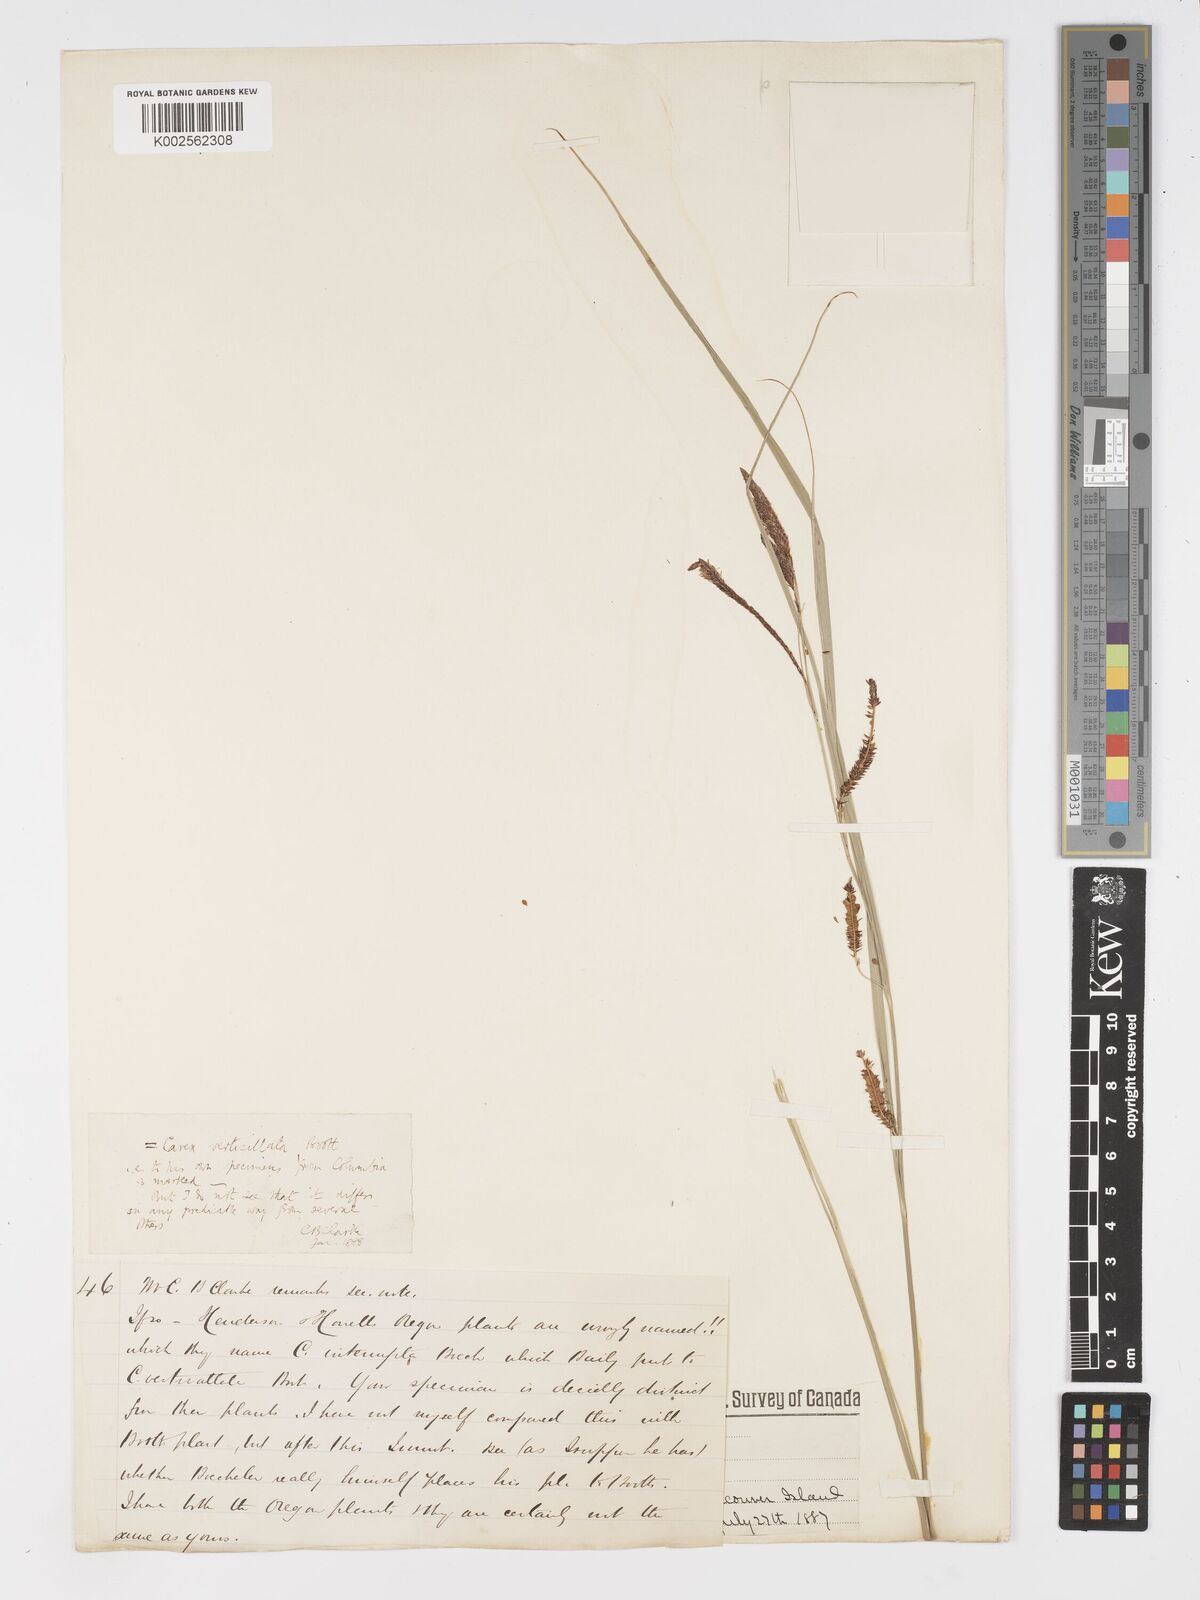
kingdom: Plantae
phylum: Tracheophyta
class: Liliopsida
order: Poales
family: Cyperaceae
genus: Carex
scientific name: Carex interrupta
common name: Green-fruited sedge
